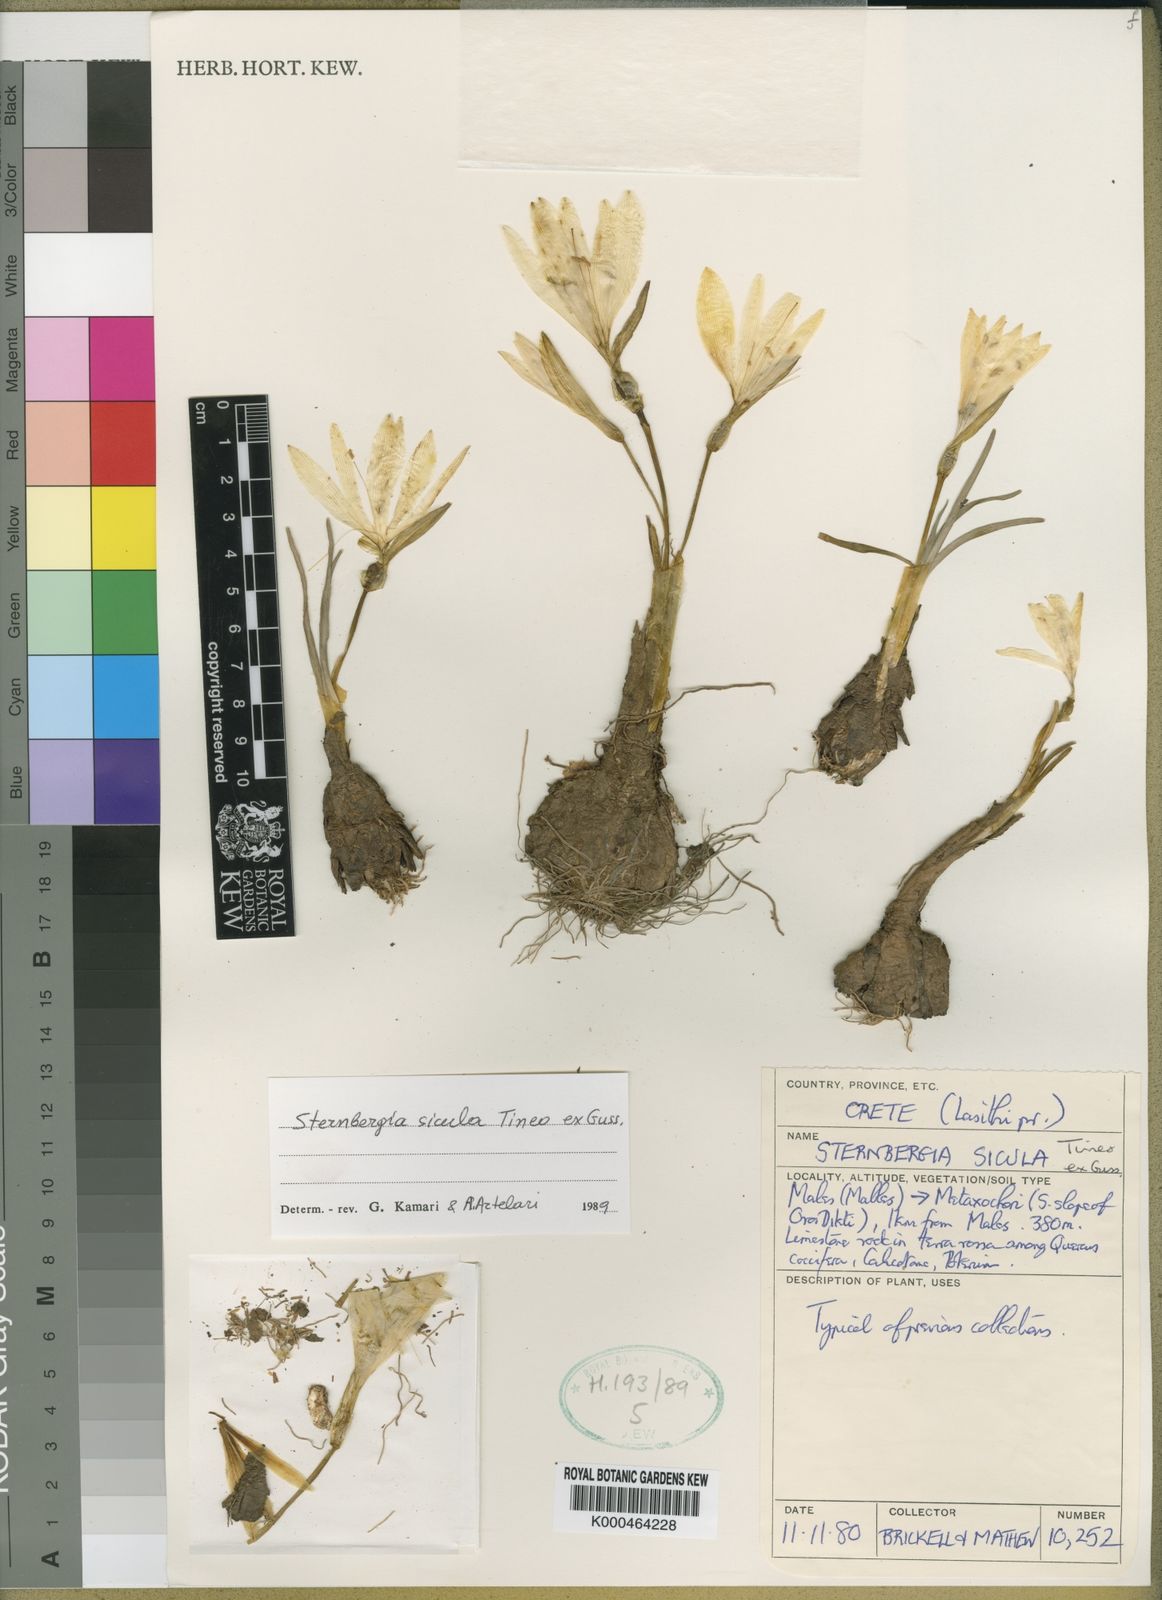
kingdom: Plantae
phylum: Tracheophyta
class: Liliopsida
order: Asparagales
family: Amaryllidaceae
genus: Sternbergia
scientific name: Sternbergia
